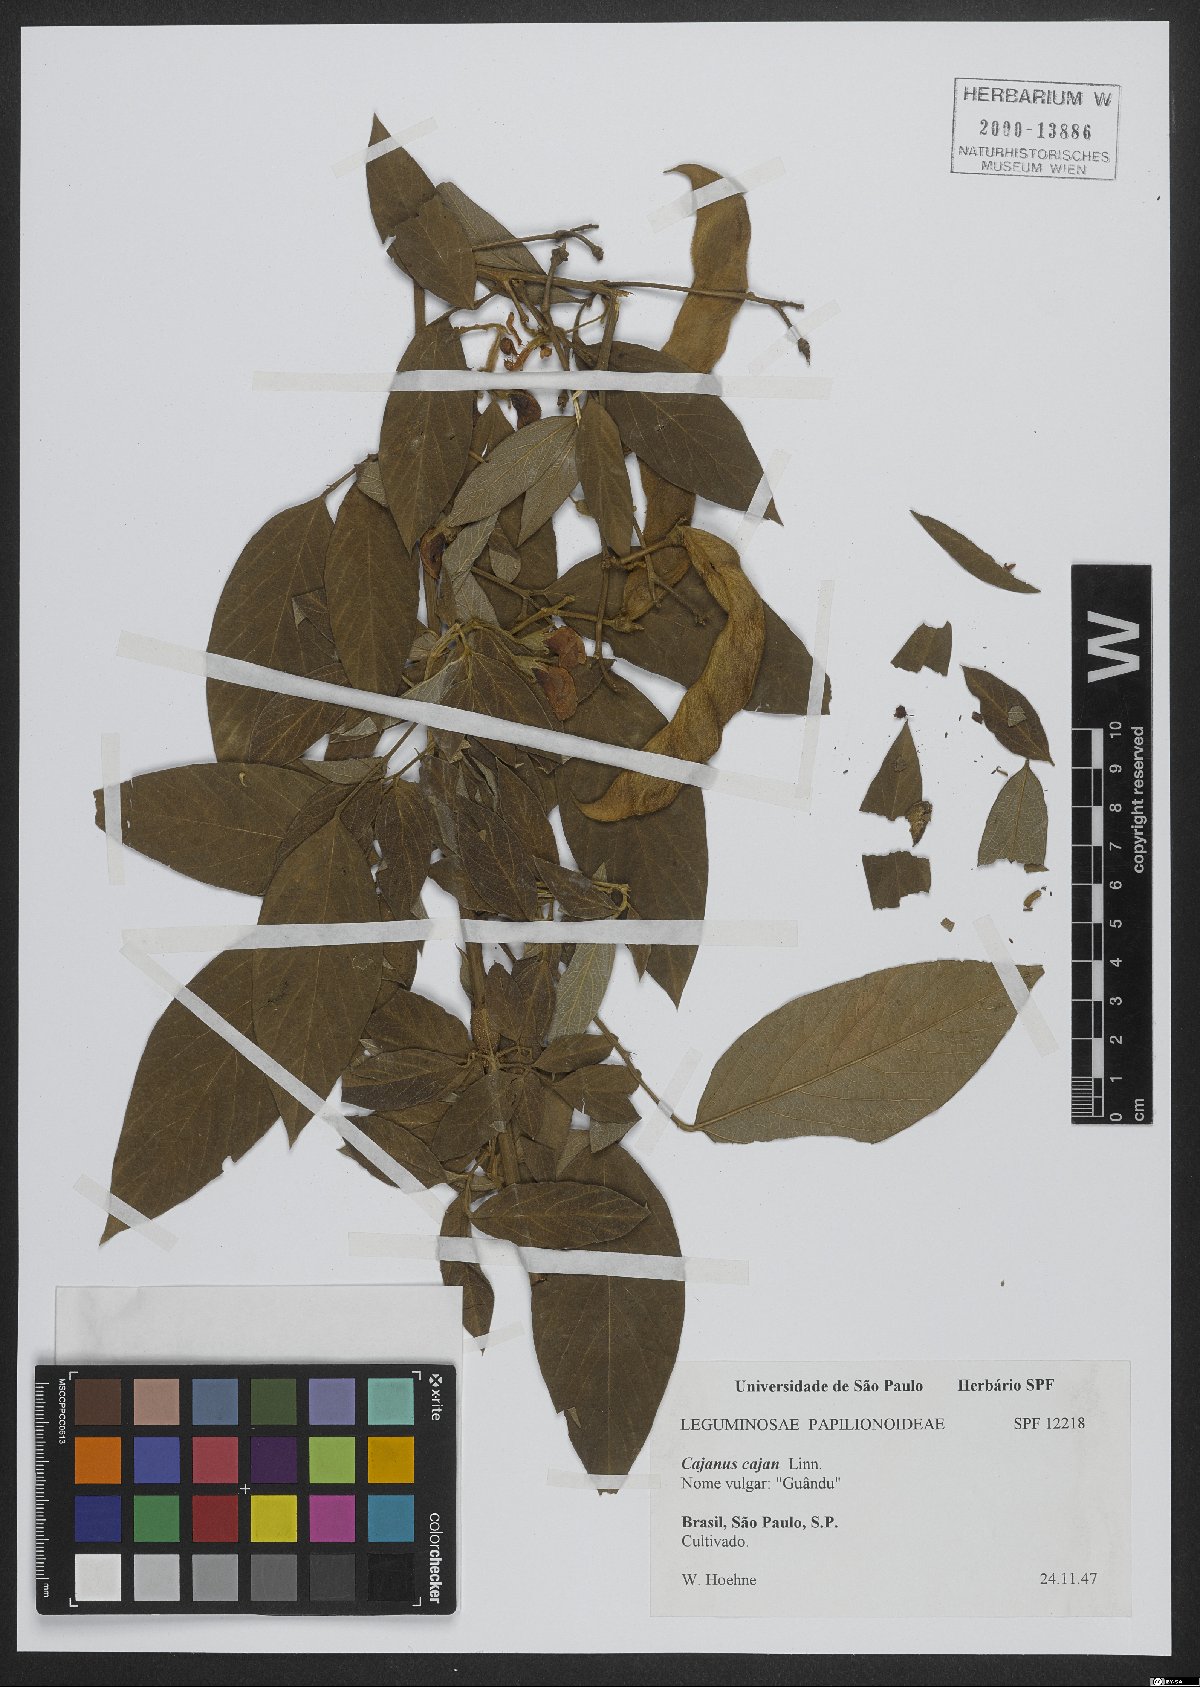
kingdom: Plantae
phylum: Tracheophyta
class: Magnoliopsida
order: Fabales
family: Fabaceae
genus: Cajanus
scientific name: Cajanus cajan
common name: Pigeonpea
